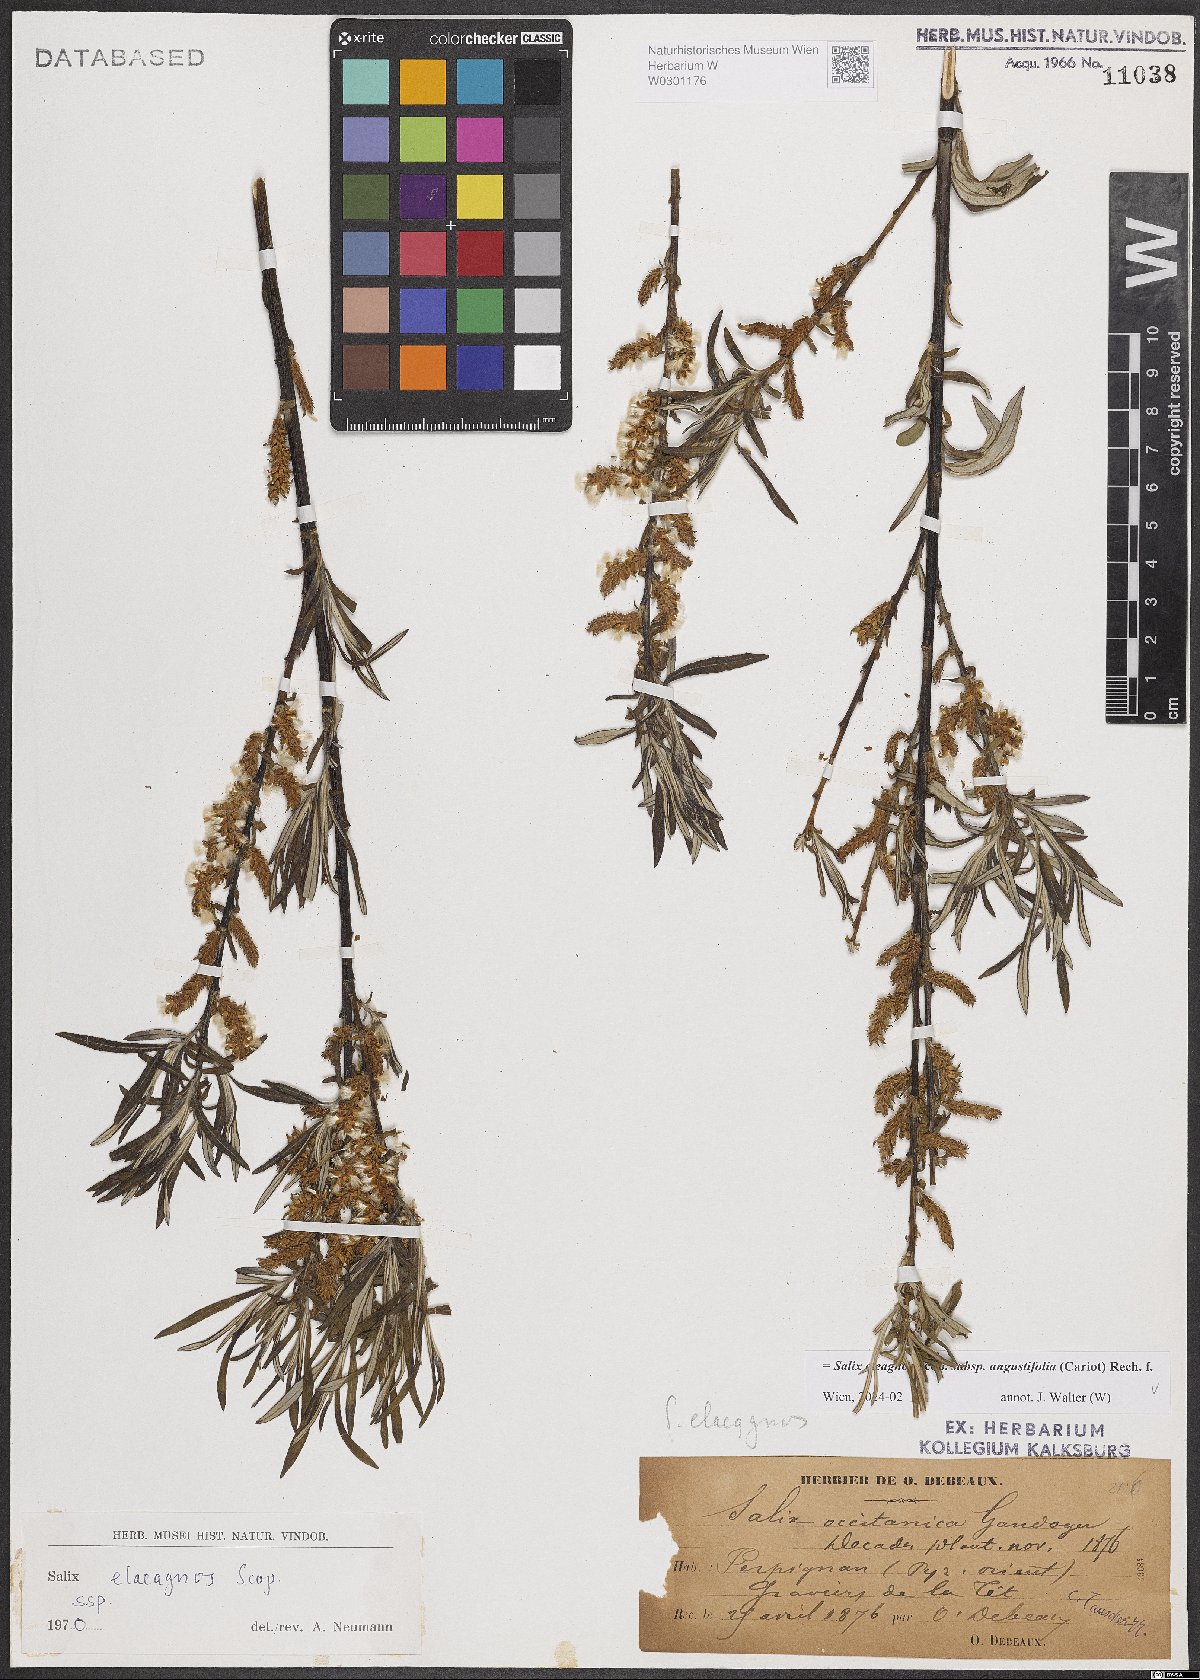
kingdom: Plantae
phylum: Tracheophyta
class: Magnoliopsida
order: Malpighiales
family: Salicaceae
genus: Salix
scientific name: Salix eleagnos
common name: Elaeagnus willow
